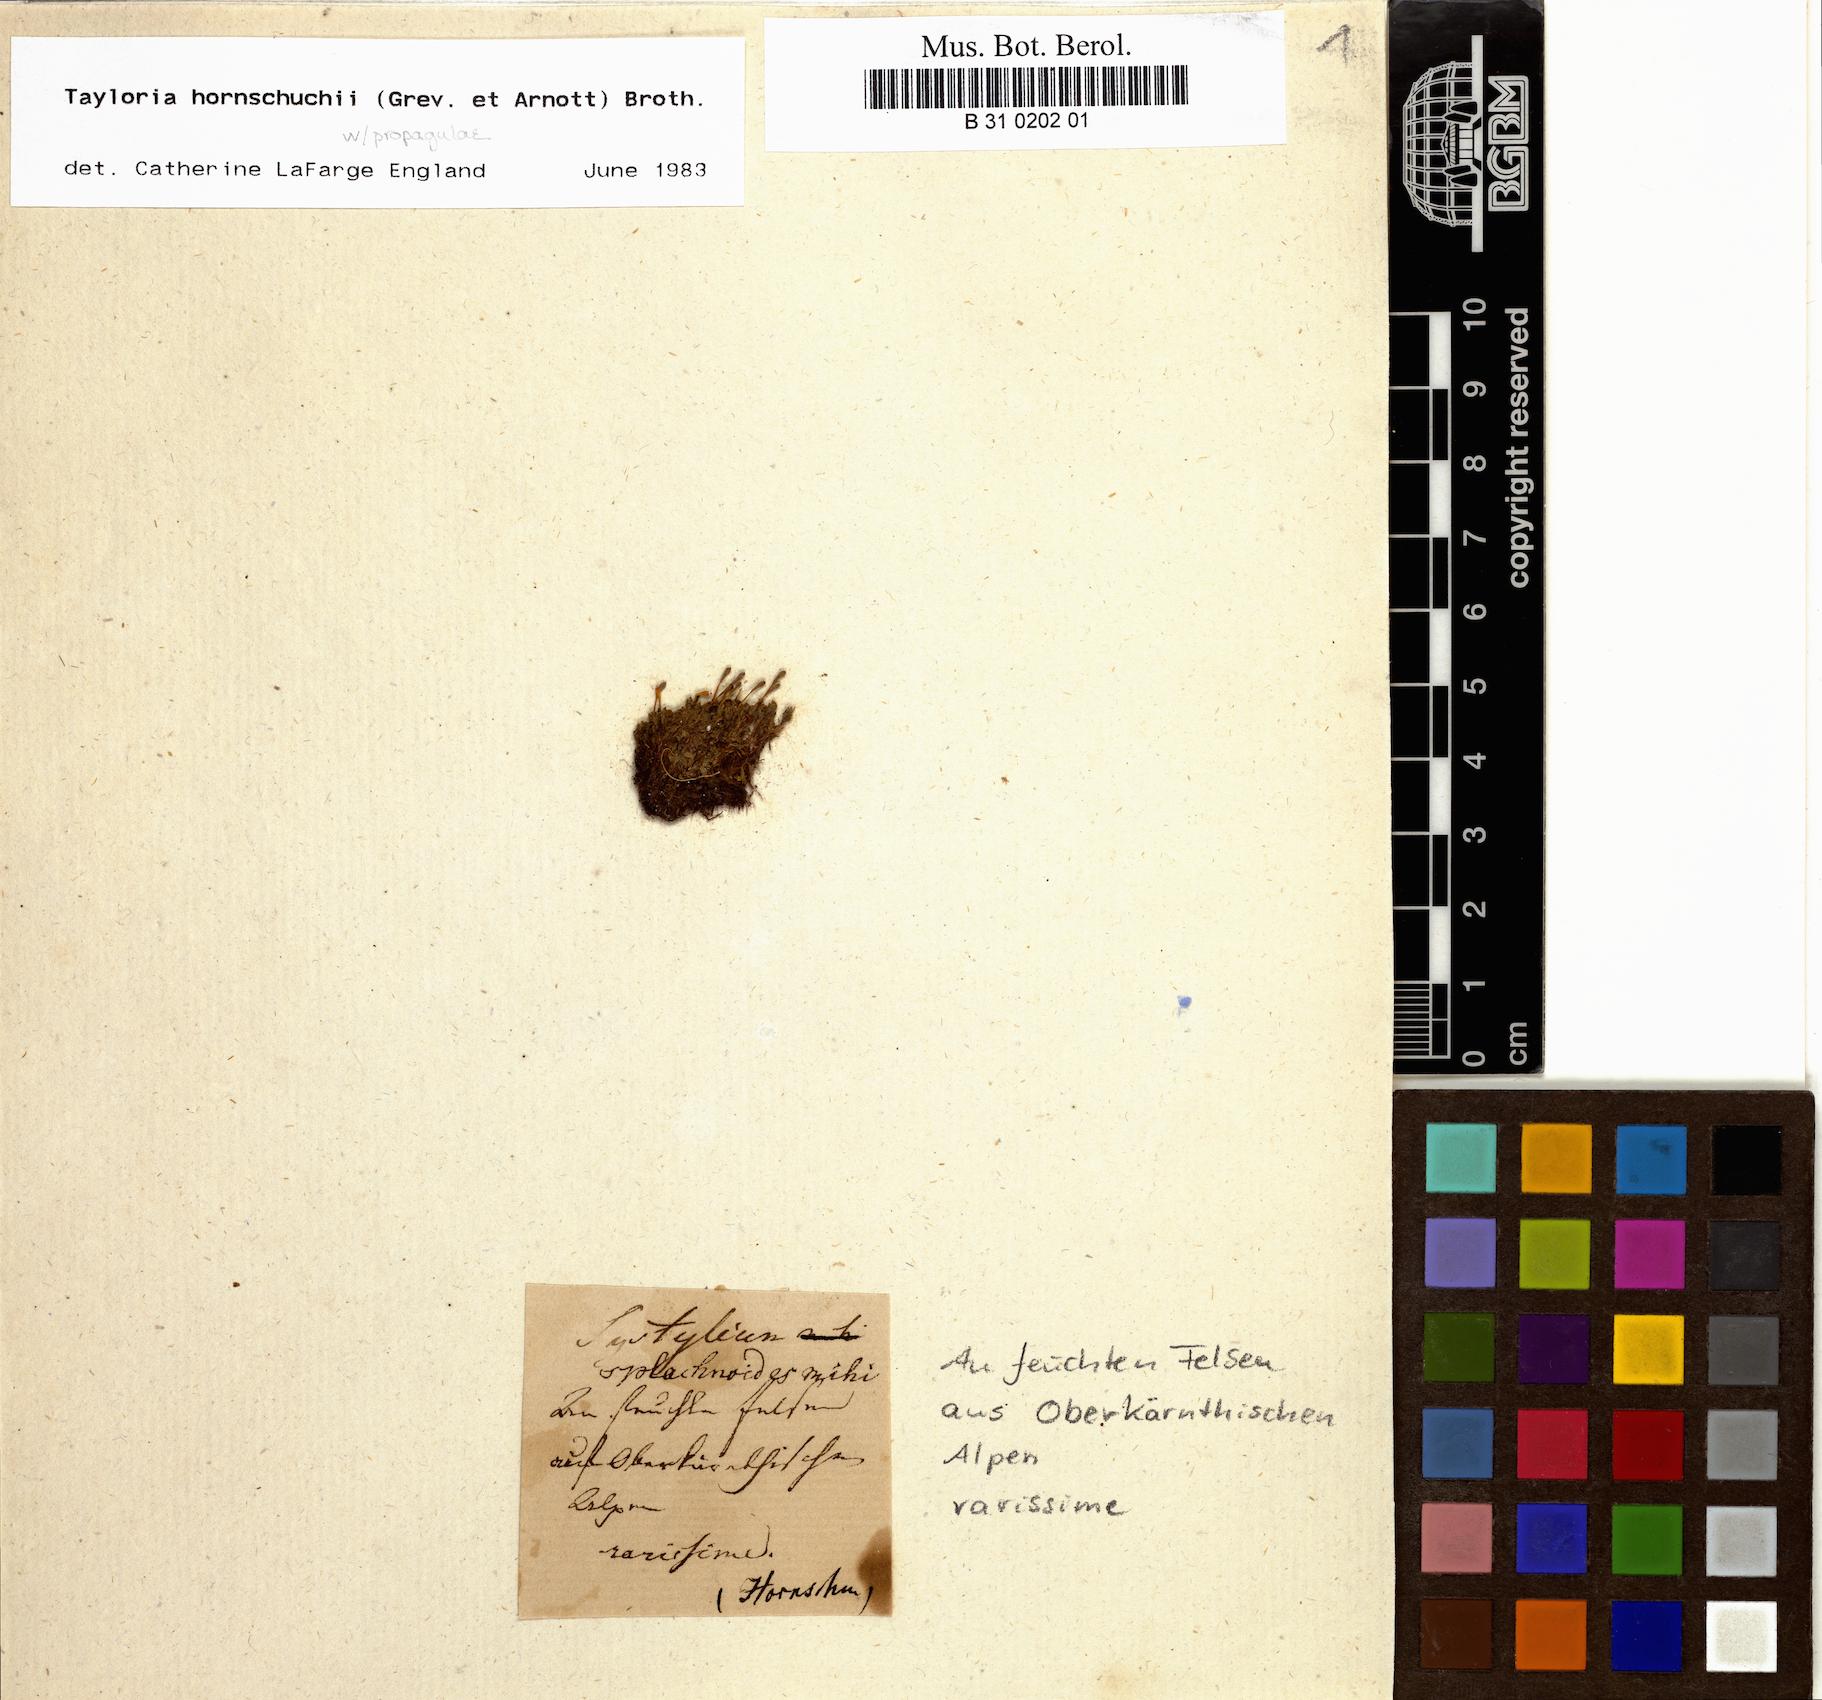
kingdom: Plantae
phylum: Bryophyta
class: Bryopsida
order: Splachnales
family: Splachnaceae
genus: Tayloria
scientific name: Tayloria hornschuchii
